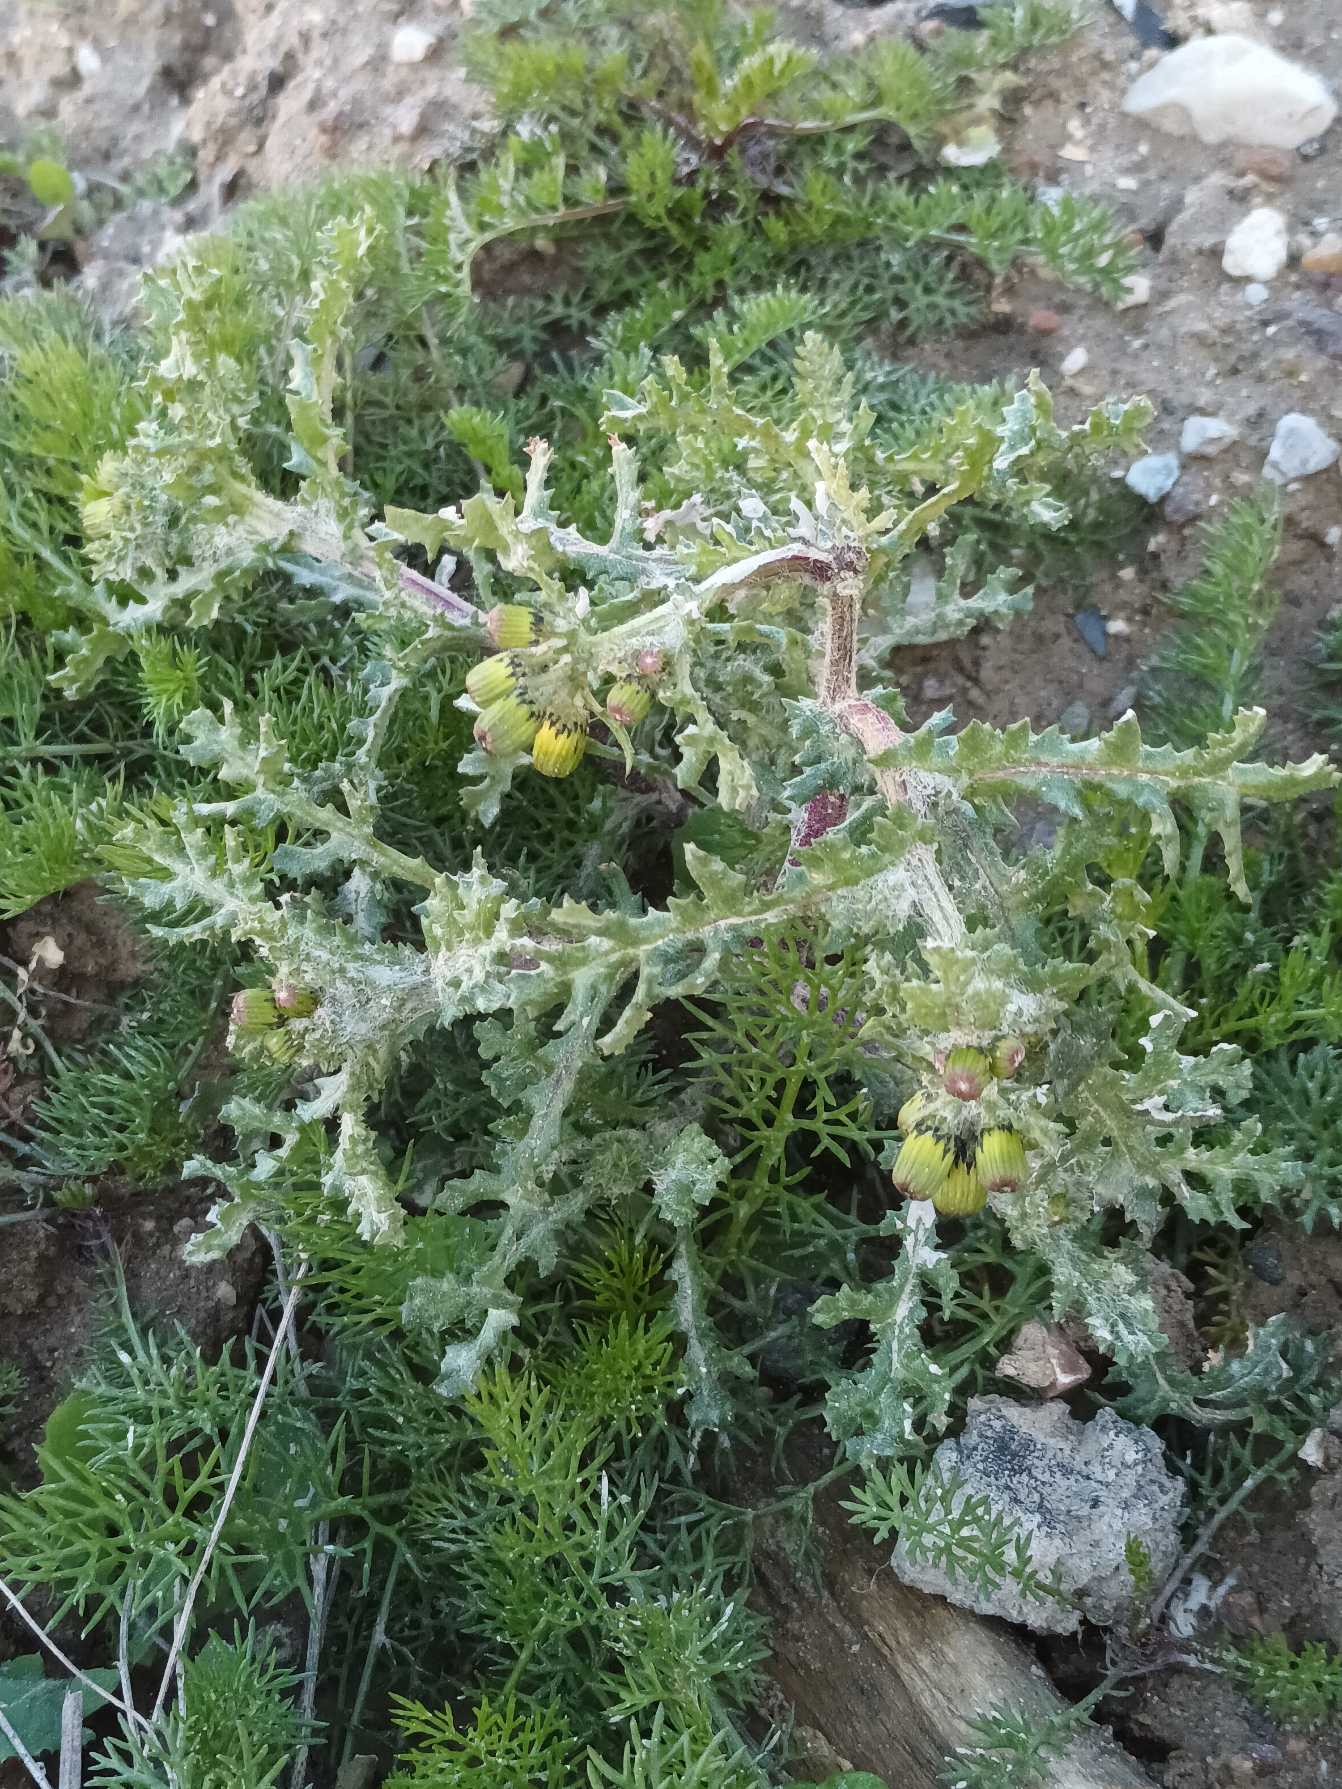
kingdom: Plantae
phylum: Tracheophyta
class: Magnoliopsida
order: Asterales
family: Asteraceae
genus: Senecio
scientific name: Senecio vulgaris
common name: Almindelig brandbæger
